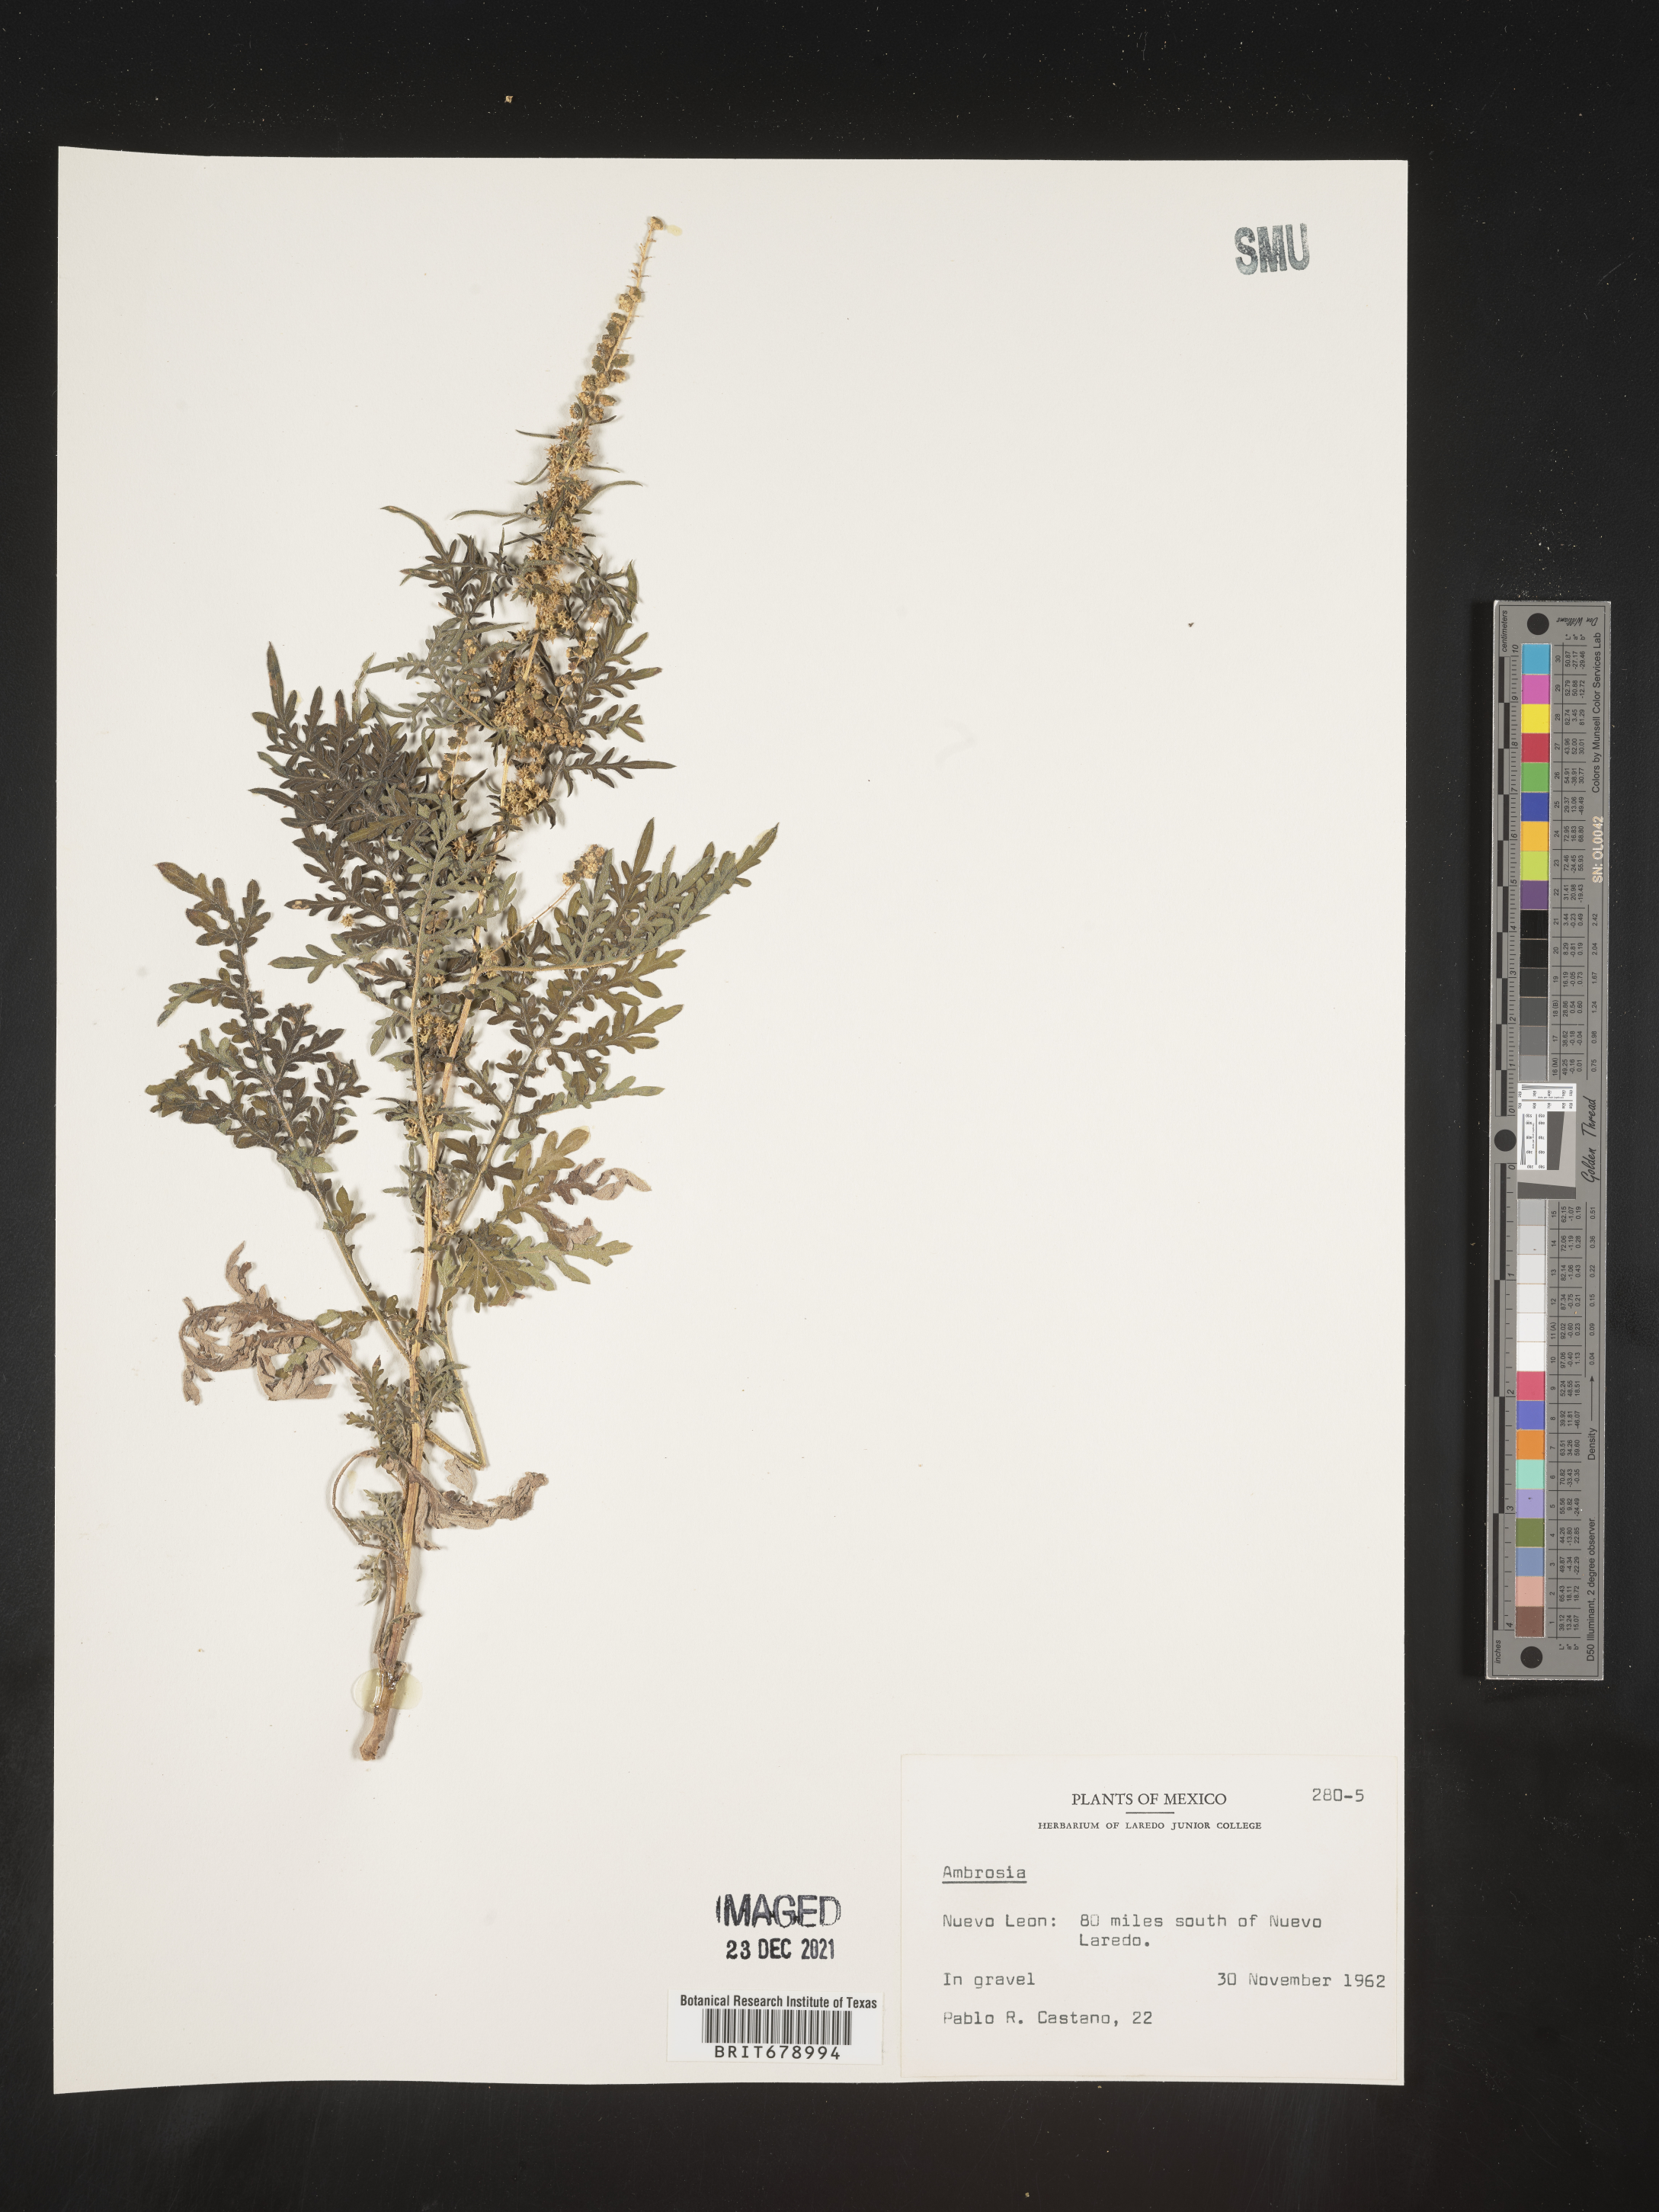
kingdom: Plantae
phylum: Tracheophyta
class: Magnoliopsida
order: Asterales
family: Asteraceae
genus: Ambrosia
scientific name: Ambrosia
